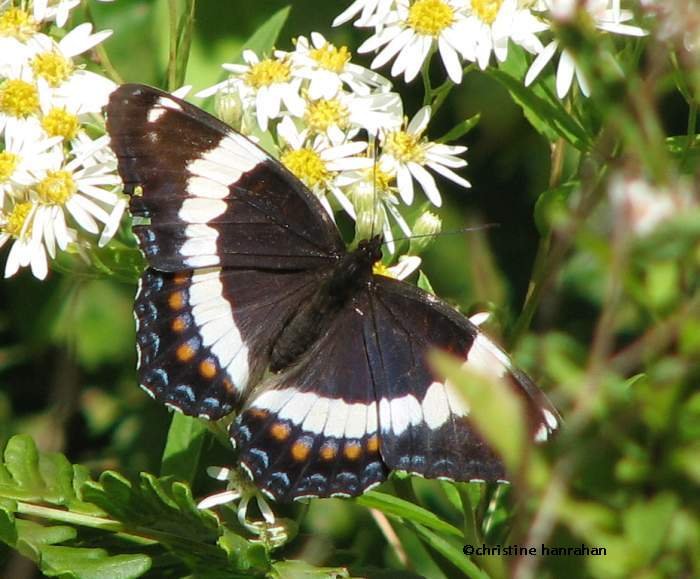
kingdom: Animalia
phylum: Arthropoda
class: Insecta
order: Lepidoptera
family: Nymphalidae
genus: Limenitis
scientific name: Limenitis arthemis
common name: Red-spotted Admiral
